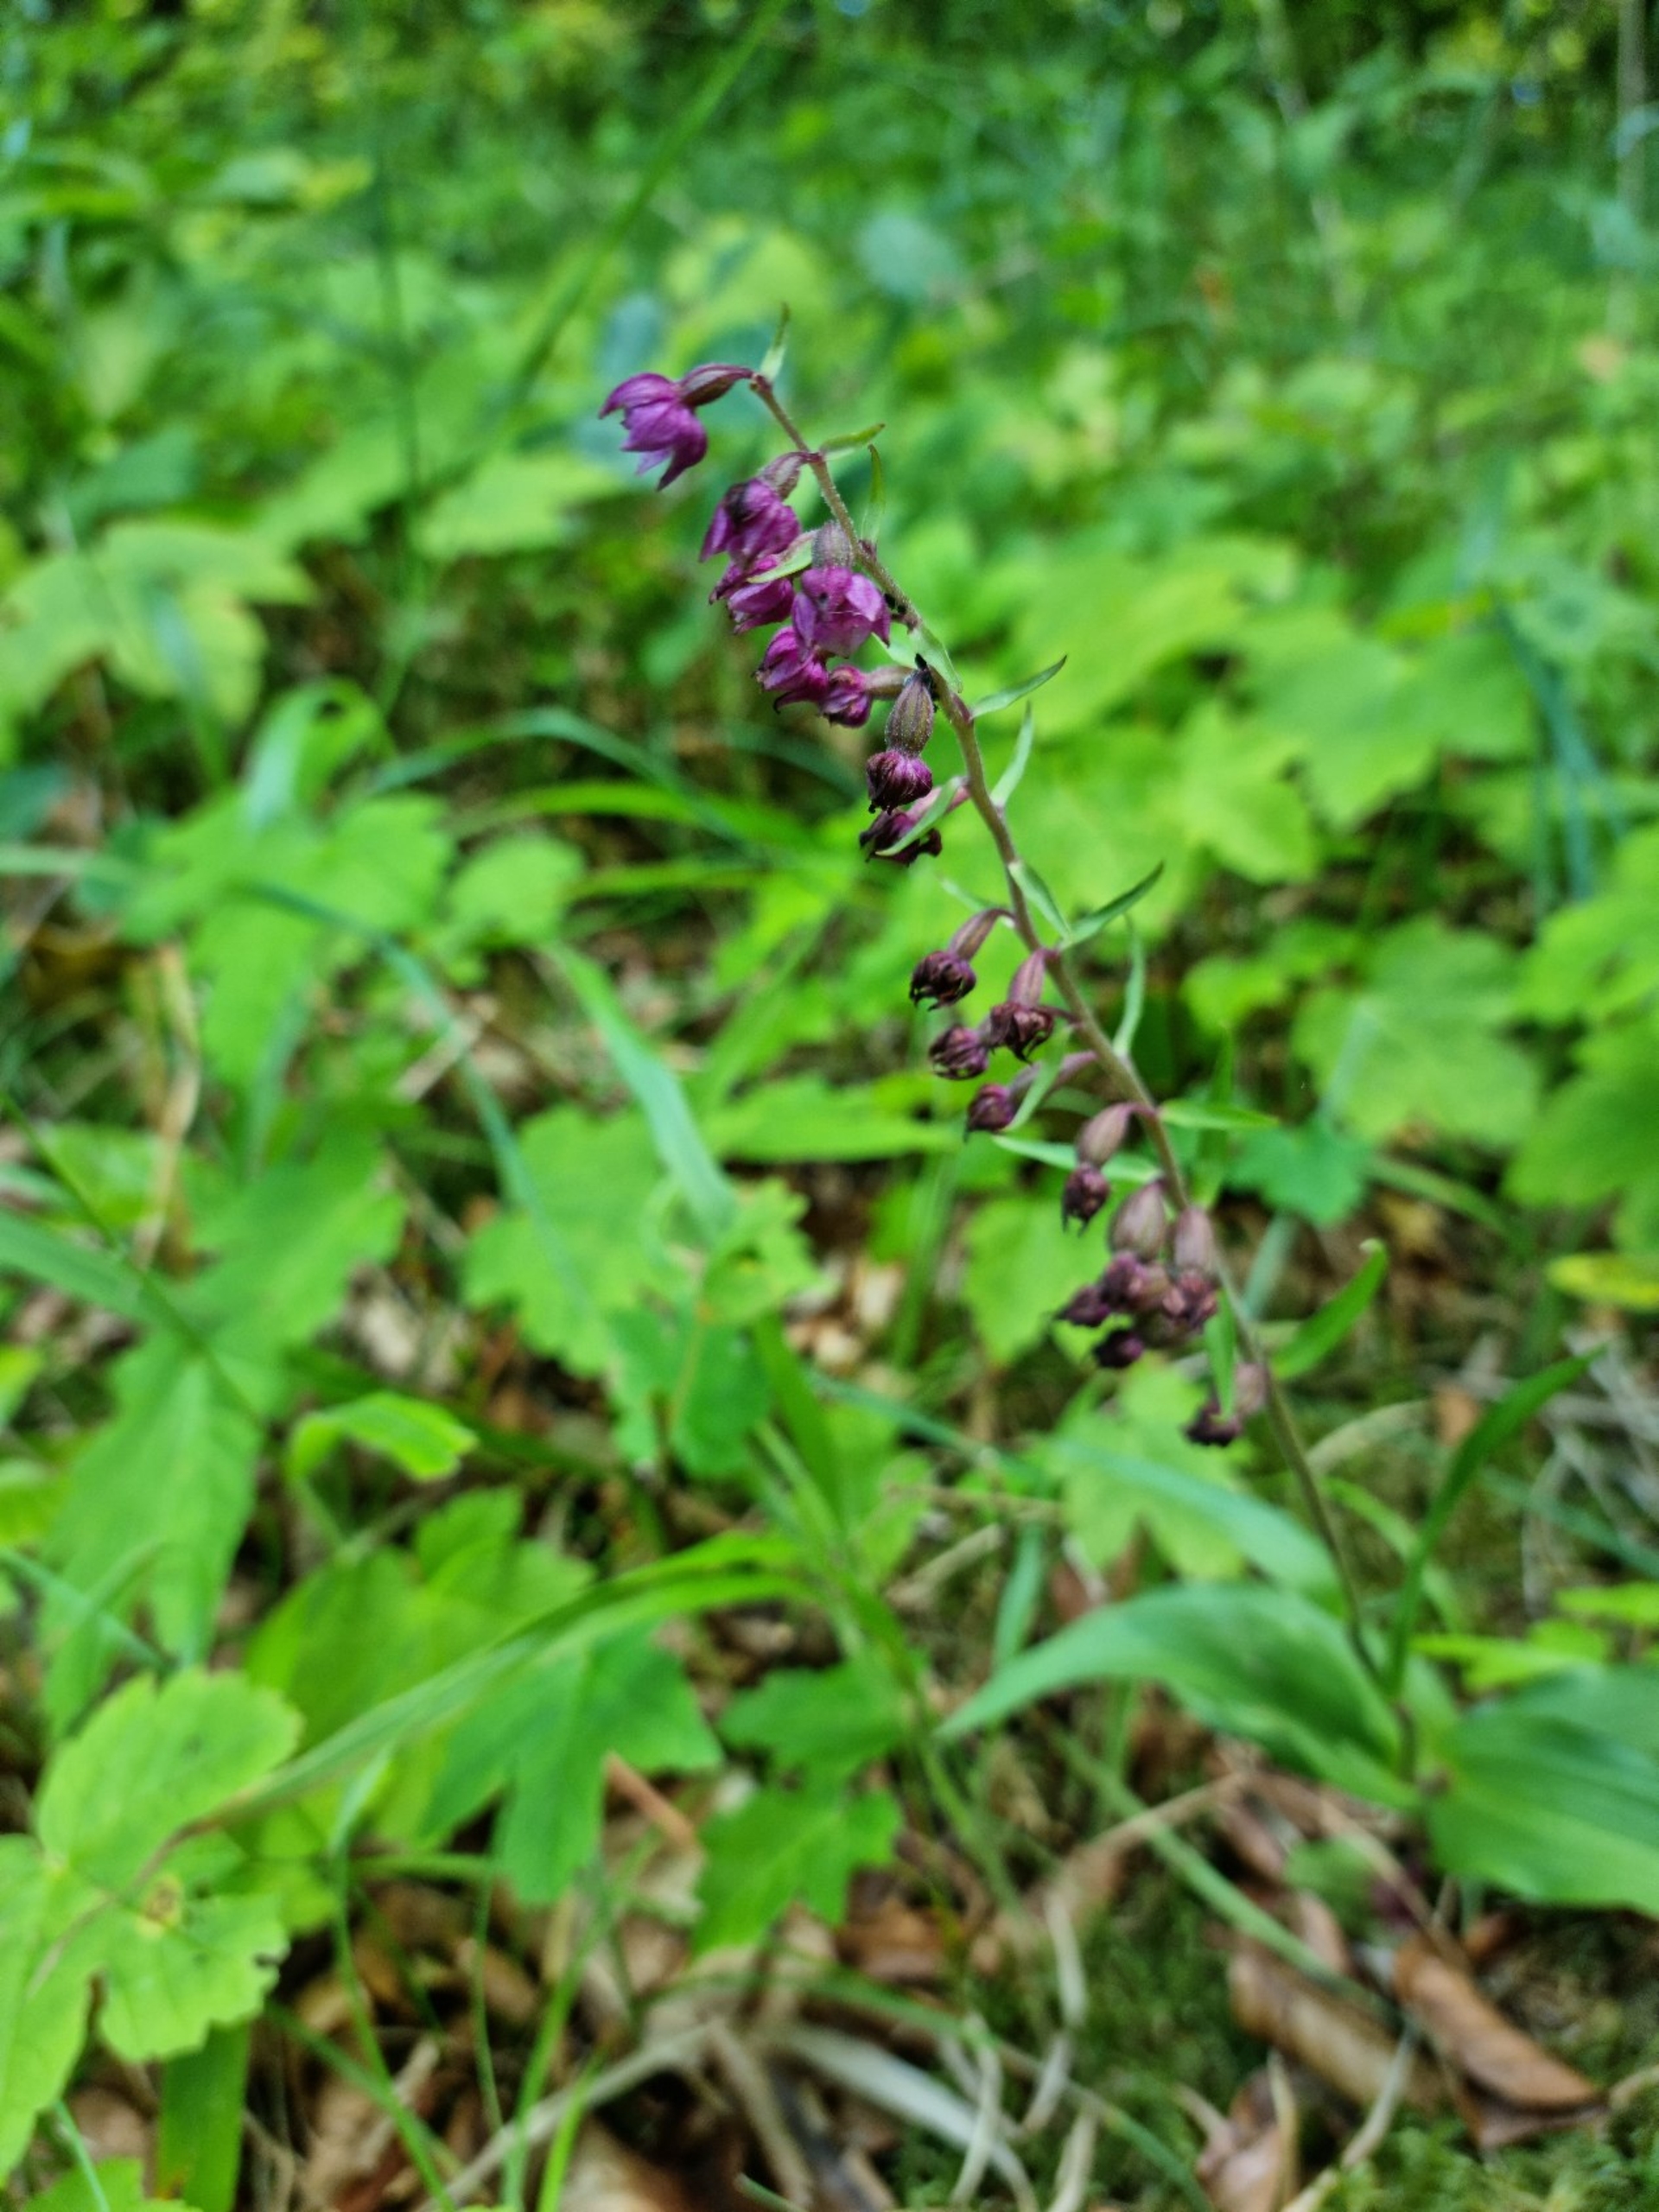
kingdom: Plantae
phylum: Tracheophyta
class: Liliopsida
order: Asparagales
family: Orchidaceae
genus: Epipactis
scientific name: Epipactis atrorubens
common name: Rød hullæbe
